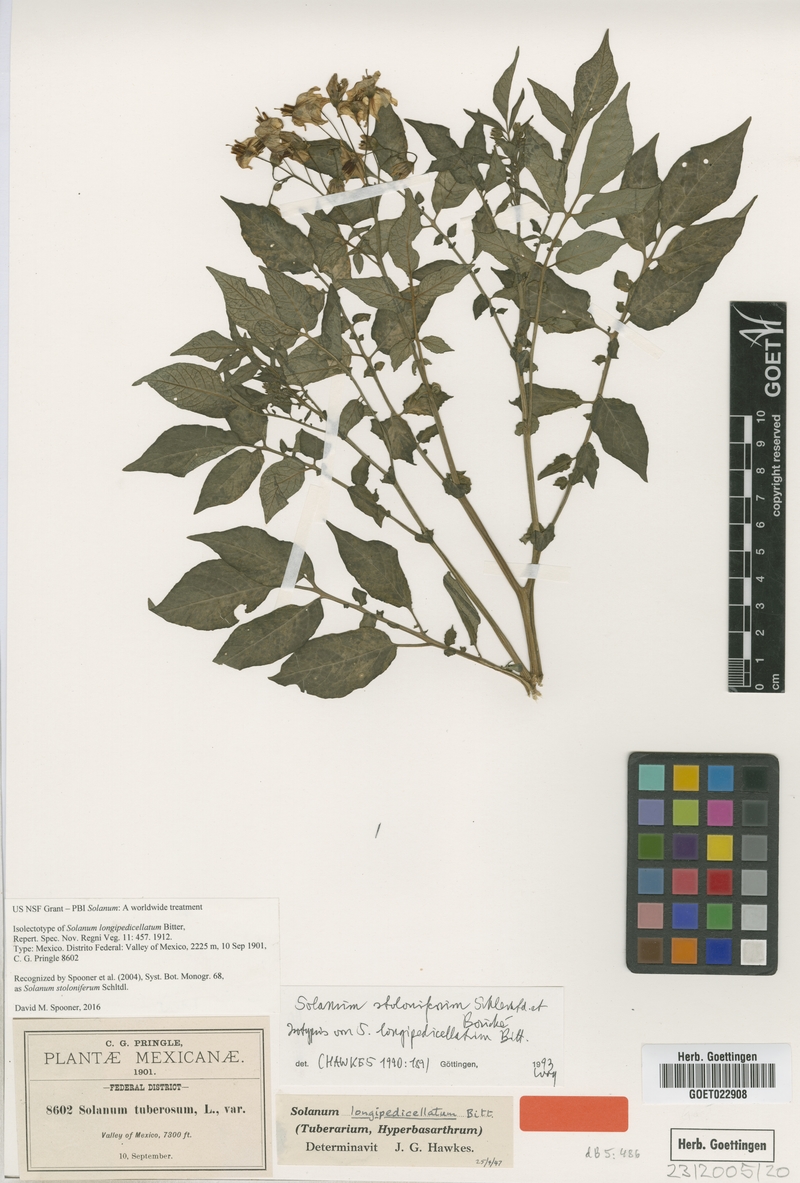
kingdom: Plantae
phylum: Tracheophyta
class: Magnoliopsida
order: Solanales
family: Solanaceae
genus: Solanum
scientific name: Solanum stoloniferum
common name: Fendler's nighshade
